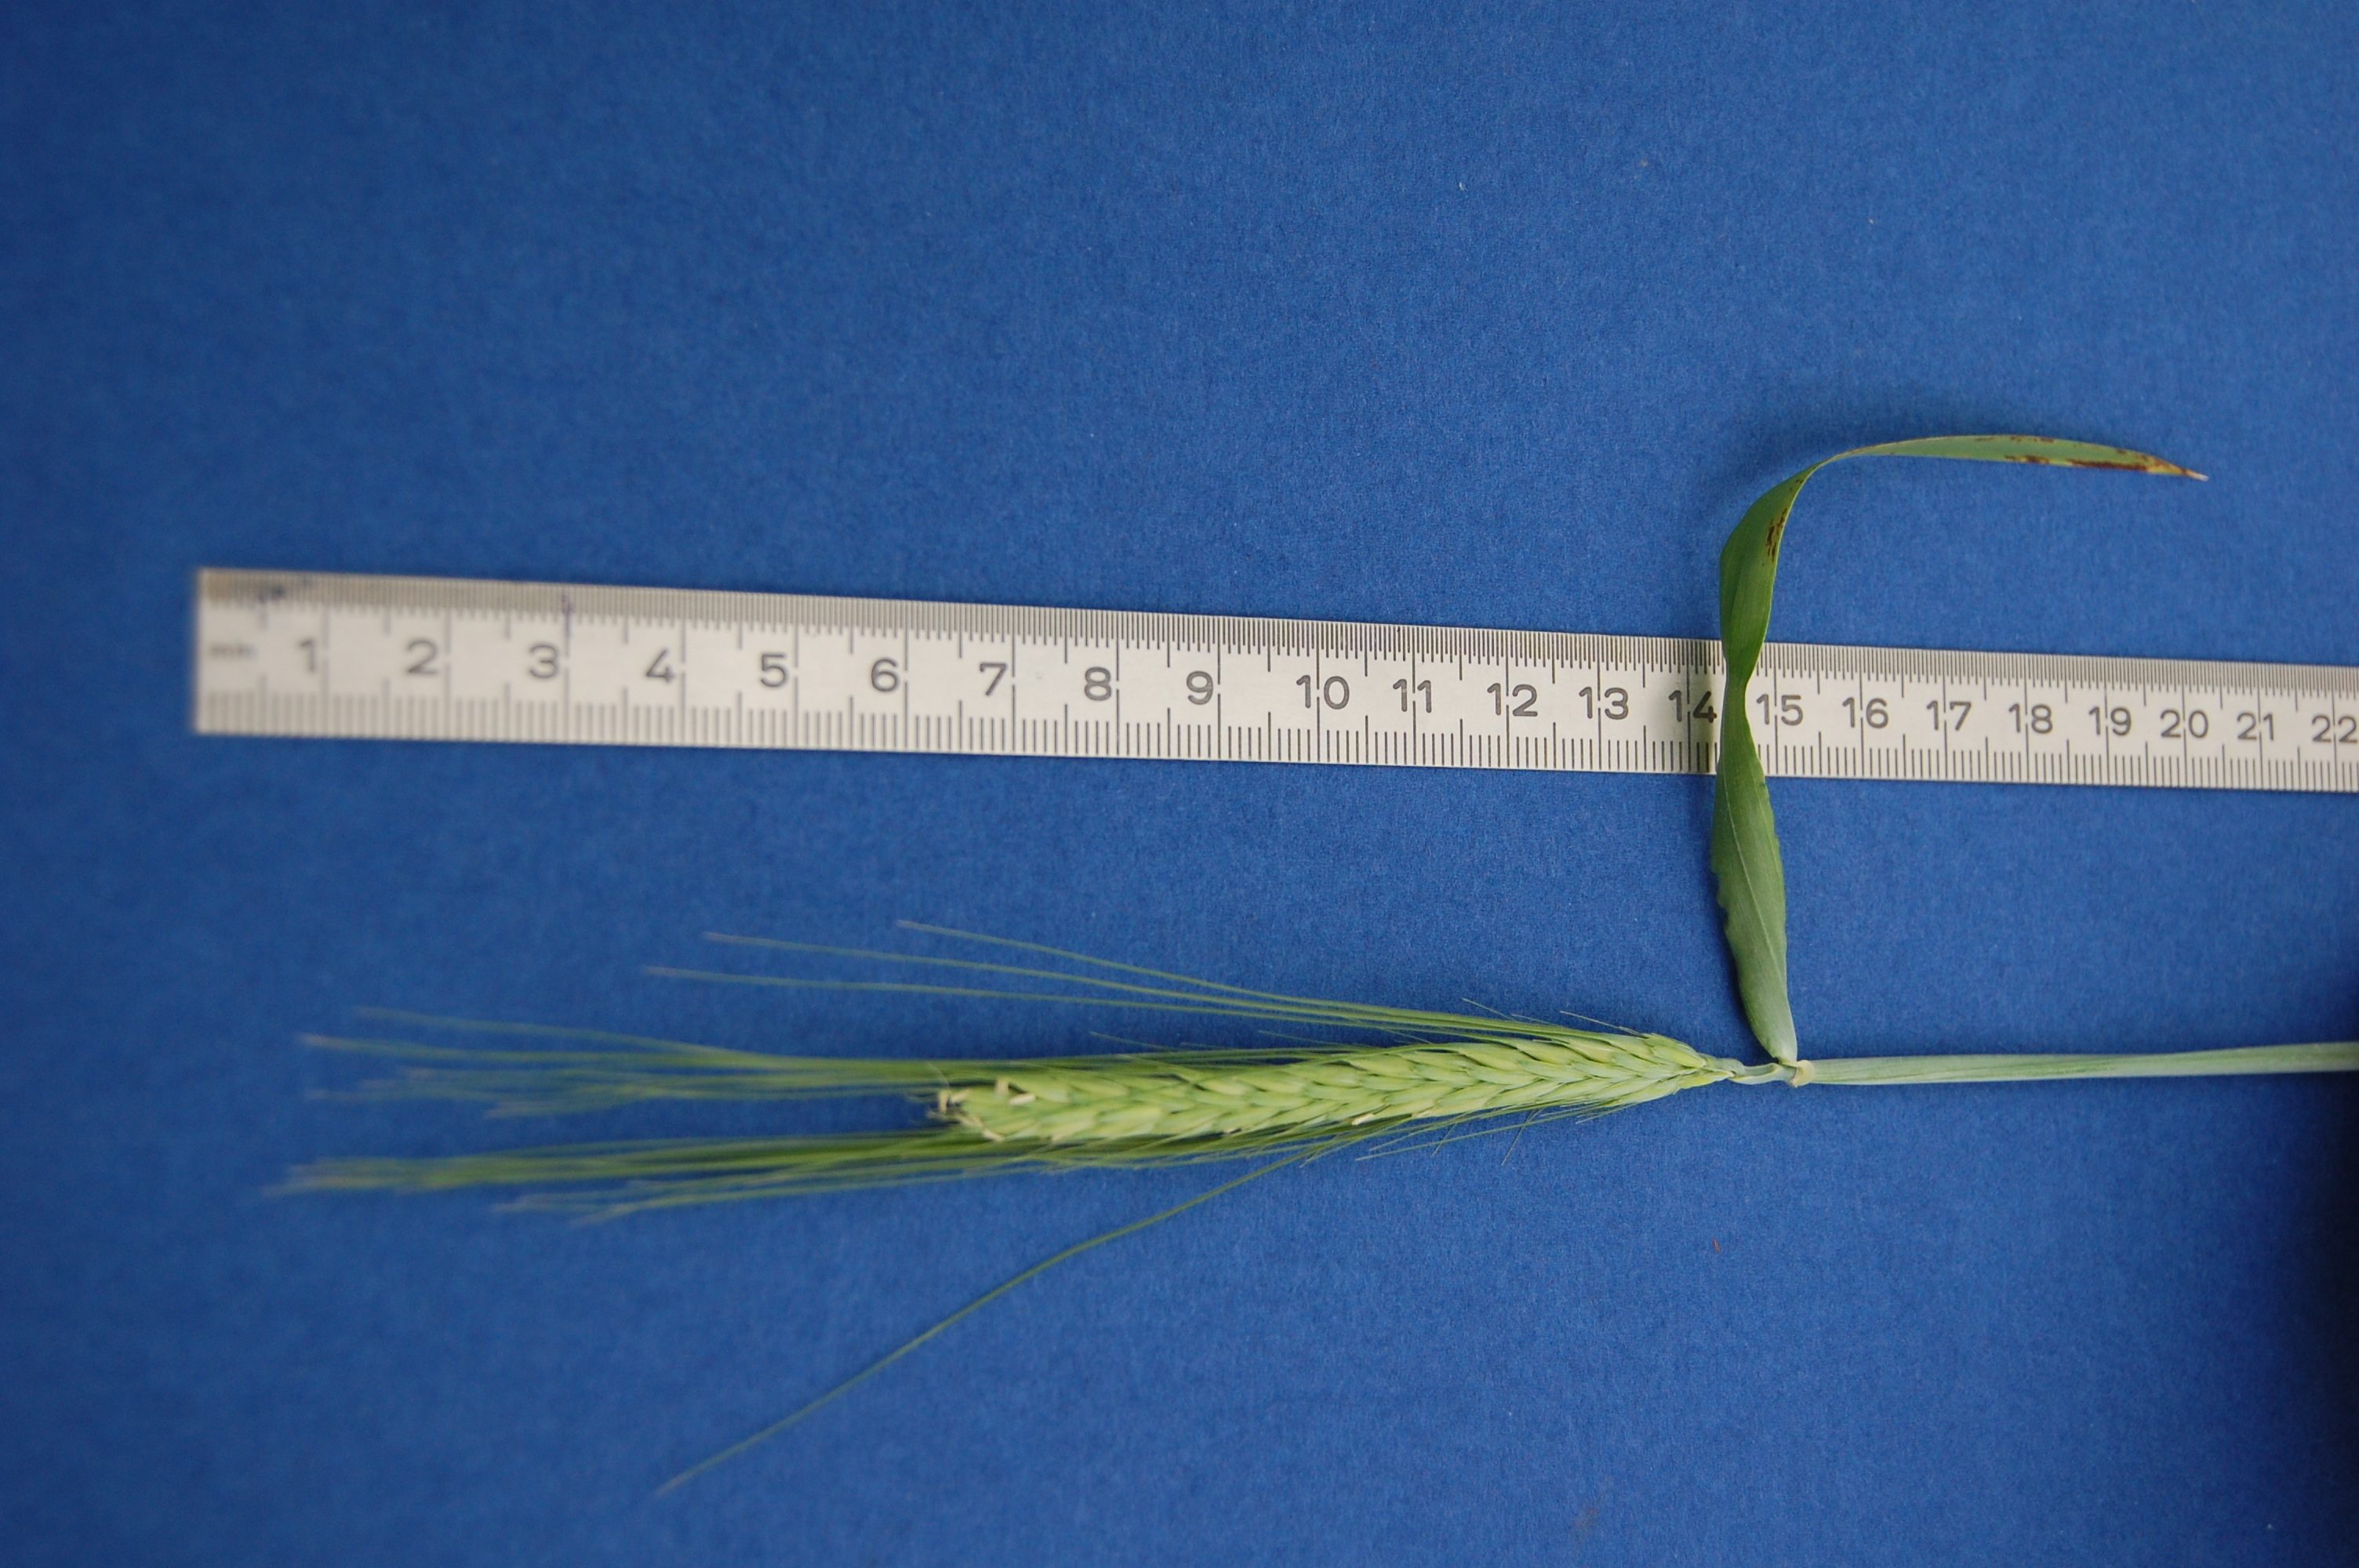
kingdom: Plantae
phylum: Tracheophyta
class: Liliopsida
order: Poales
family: Poaceae
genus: Hordeum
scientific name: Hordeum vulgare
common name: Common barley
